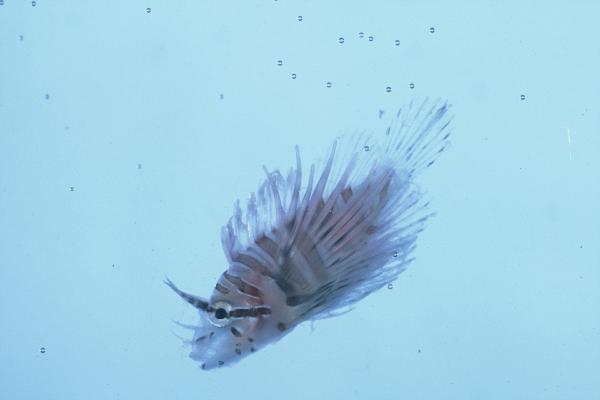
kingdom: Animalia
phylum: Chordata
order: Scorpaeniformes
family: Scorpaenidae
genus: Pterois
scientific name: Pterois mombasae
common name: Deepwater firefish
